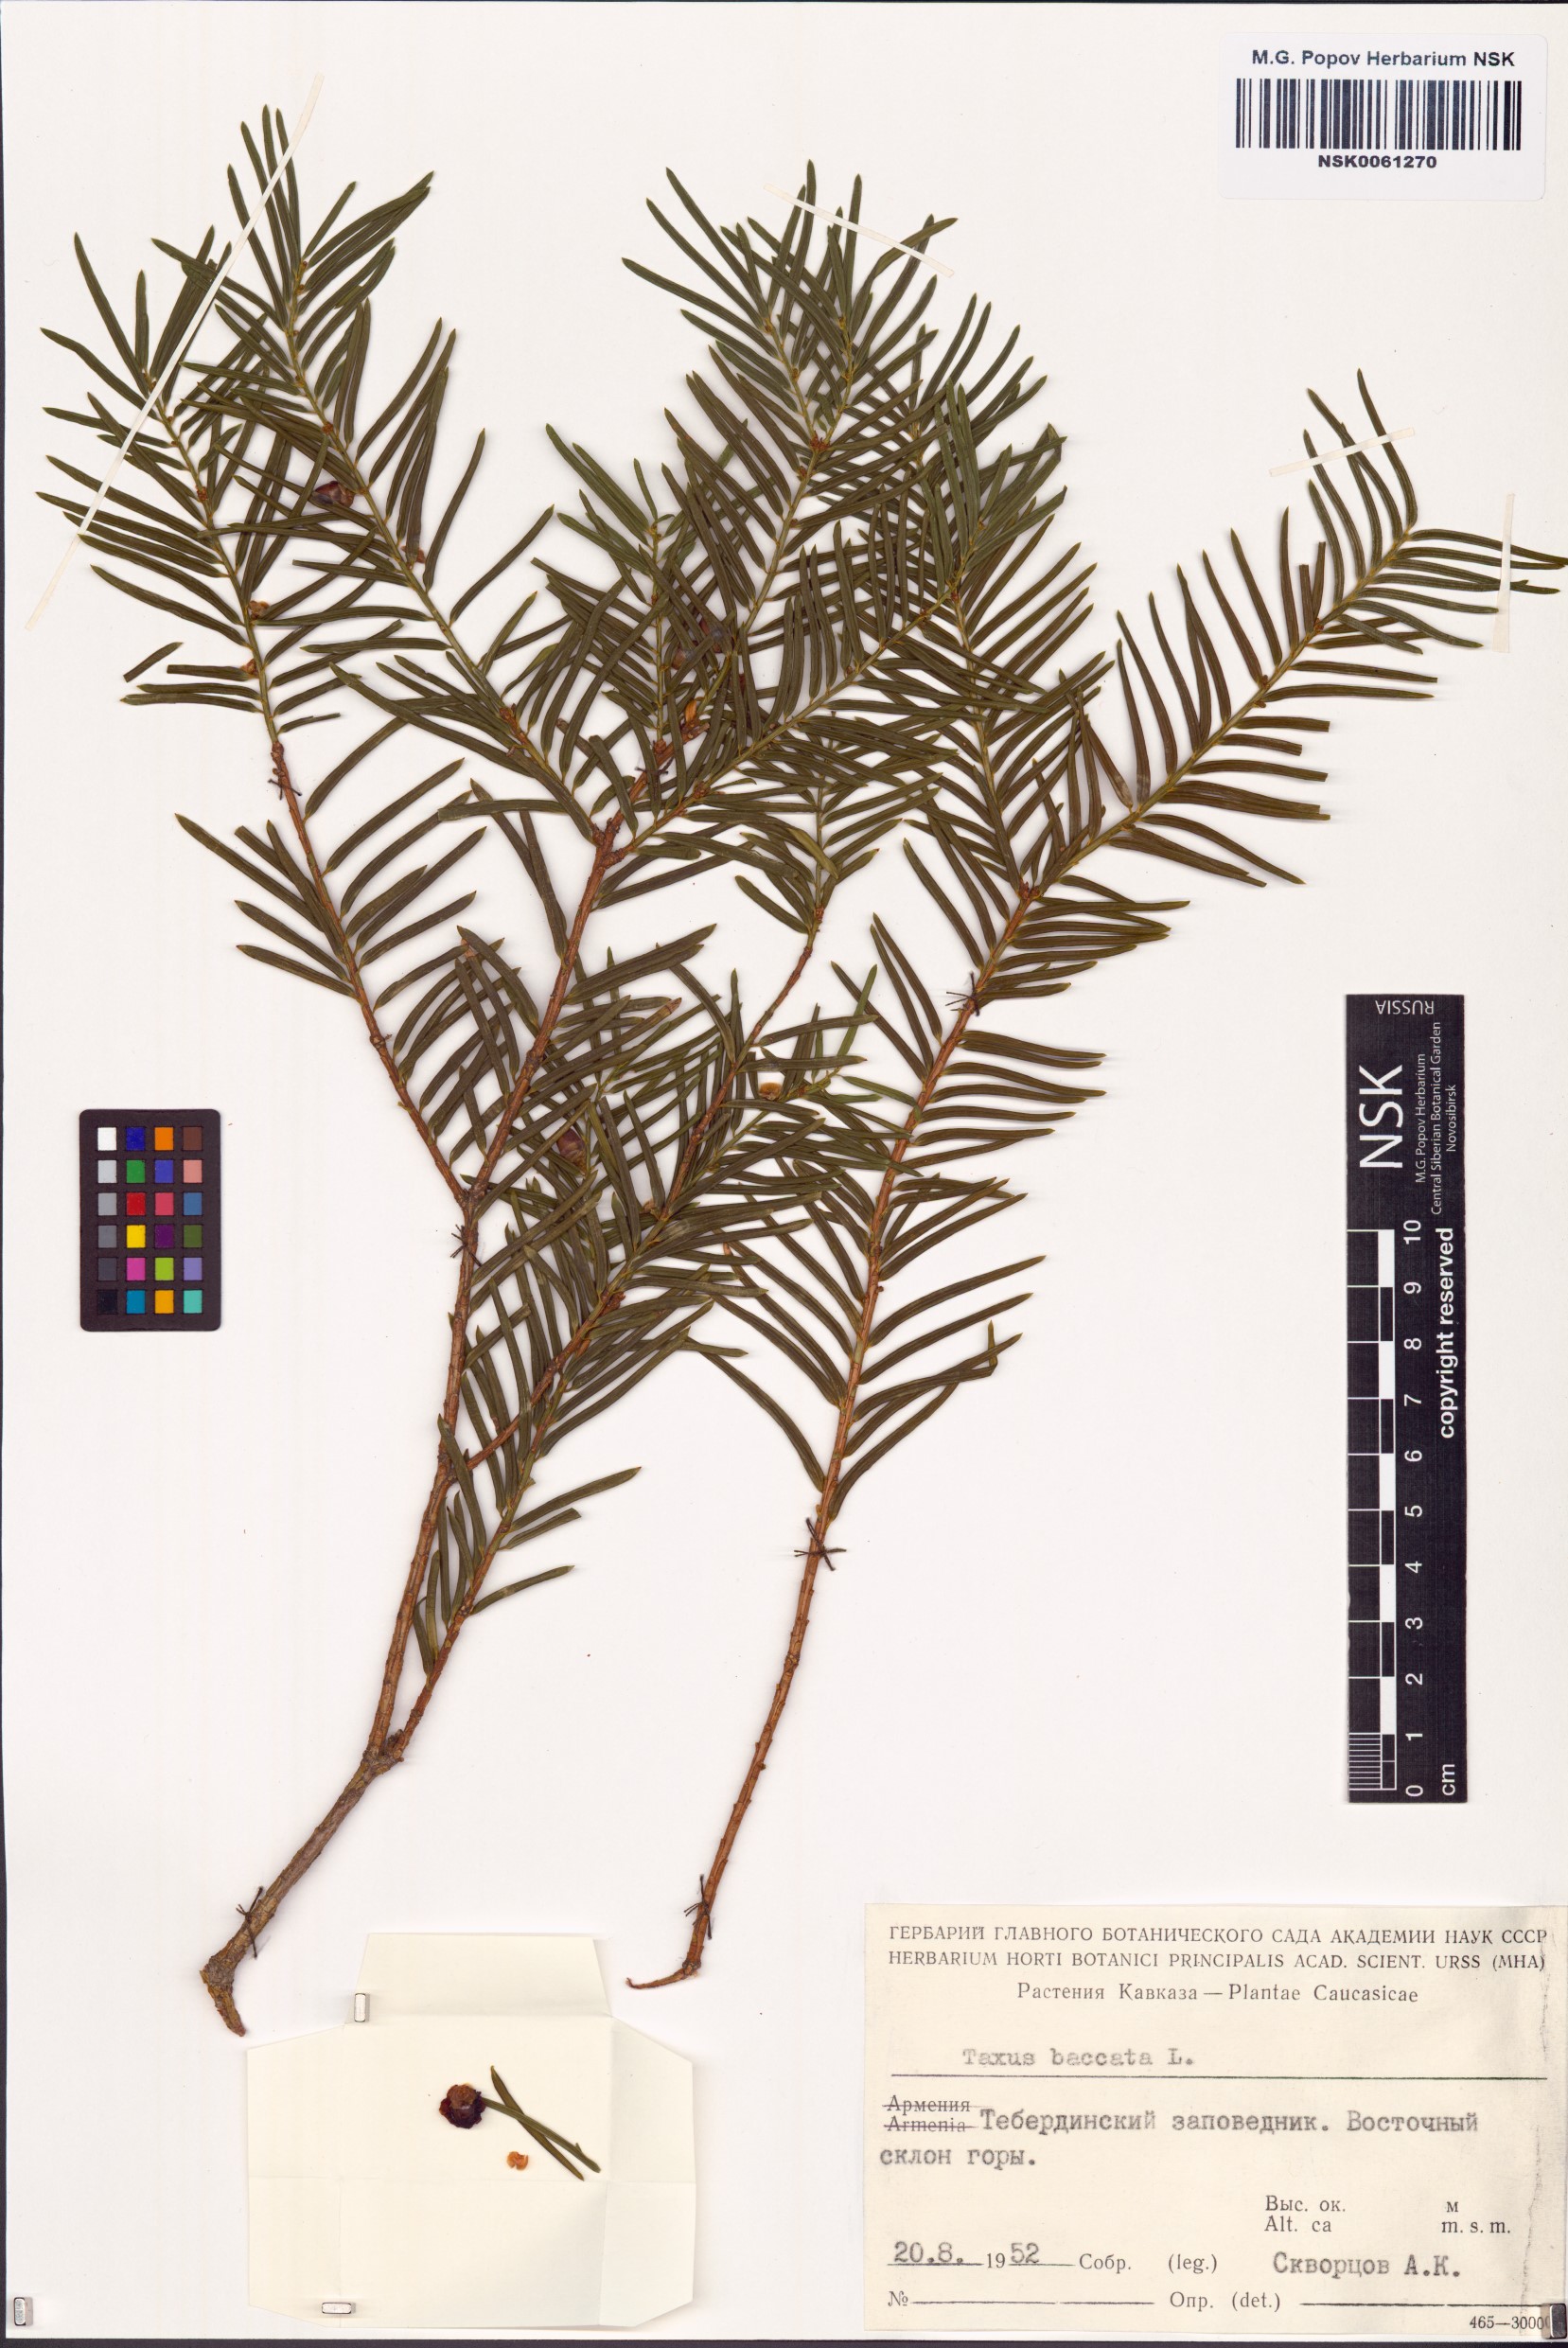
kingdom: Plantae
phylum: Tracheophyta
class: Pinopsida
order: Pinales
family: Taxaceae
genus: Taxus
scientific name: Taxus baccata
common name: Yew
